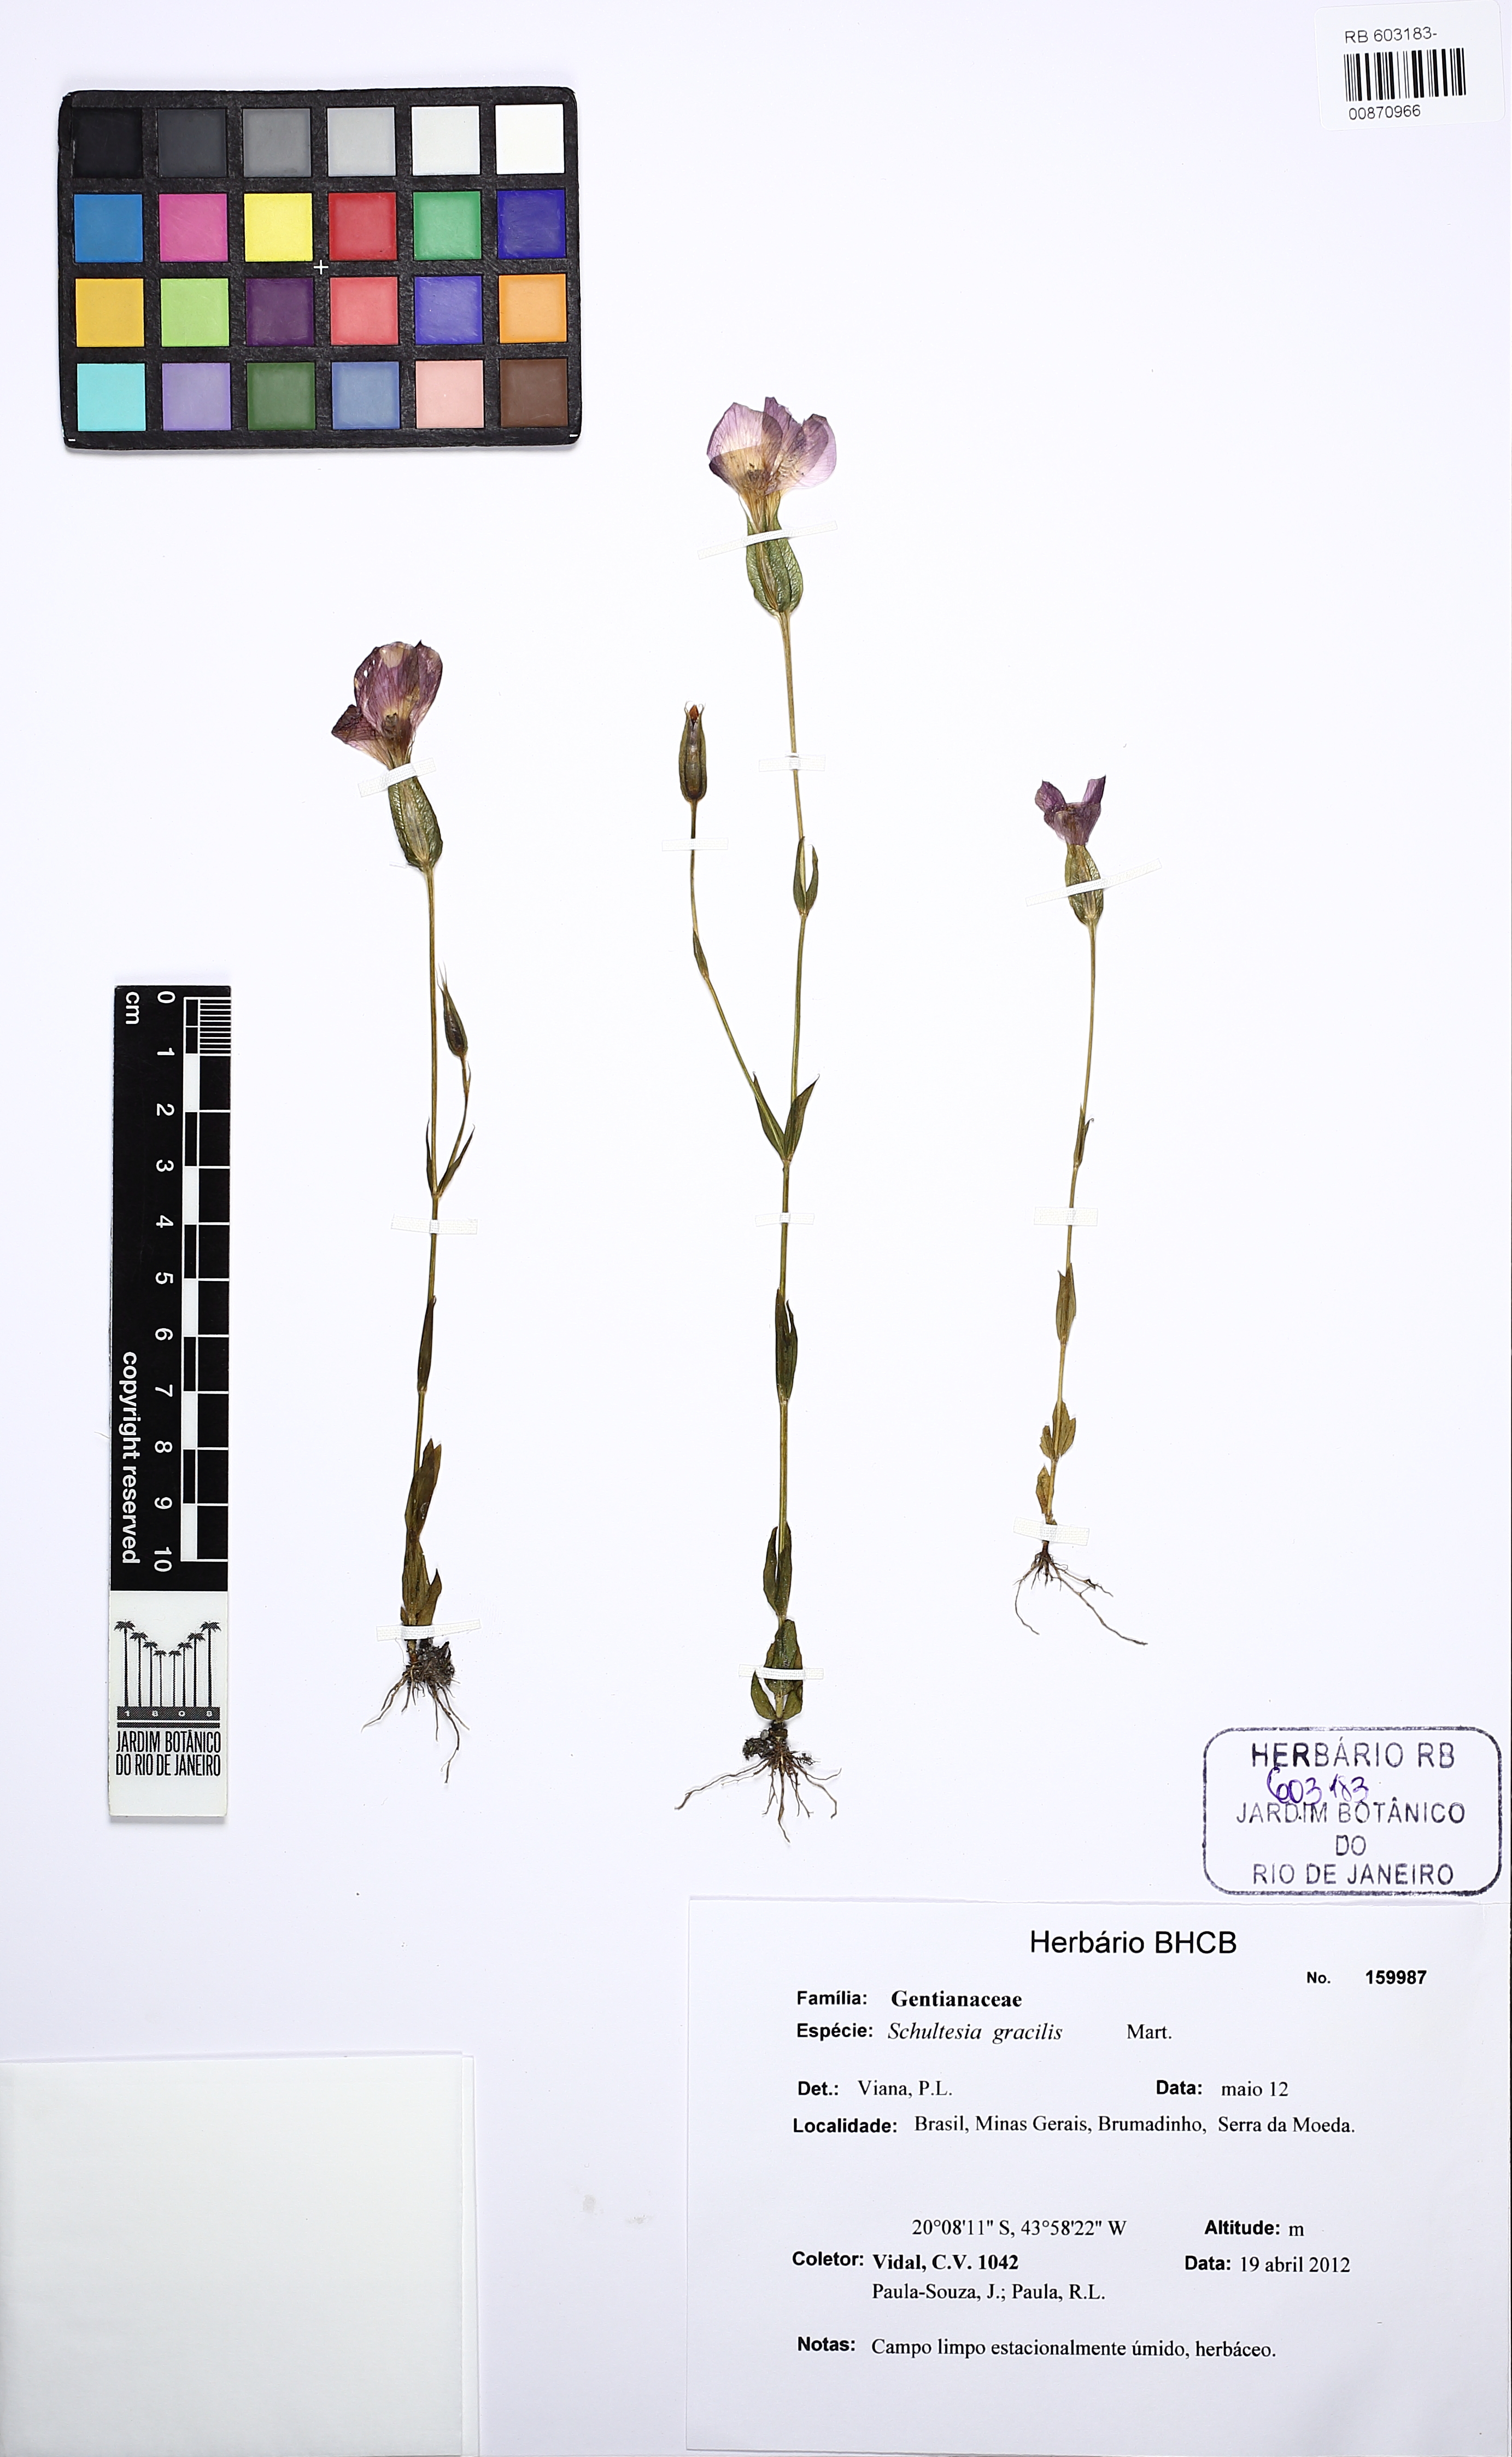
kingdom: Plantae
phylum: Tracheophyta
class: Magnoliopsida
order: Gentianales
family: Gentianaceae
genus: Schultesia
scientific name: Schultesia gracilis
